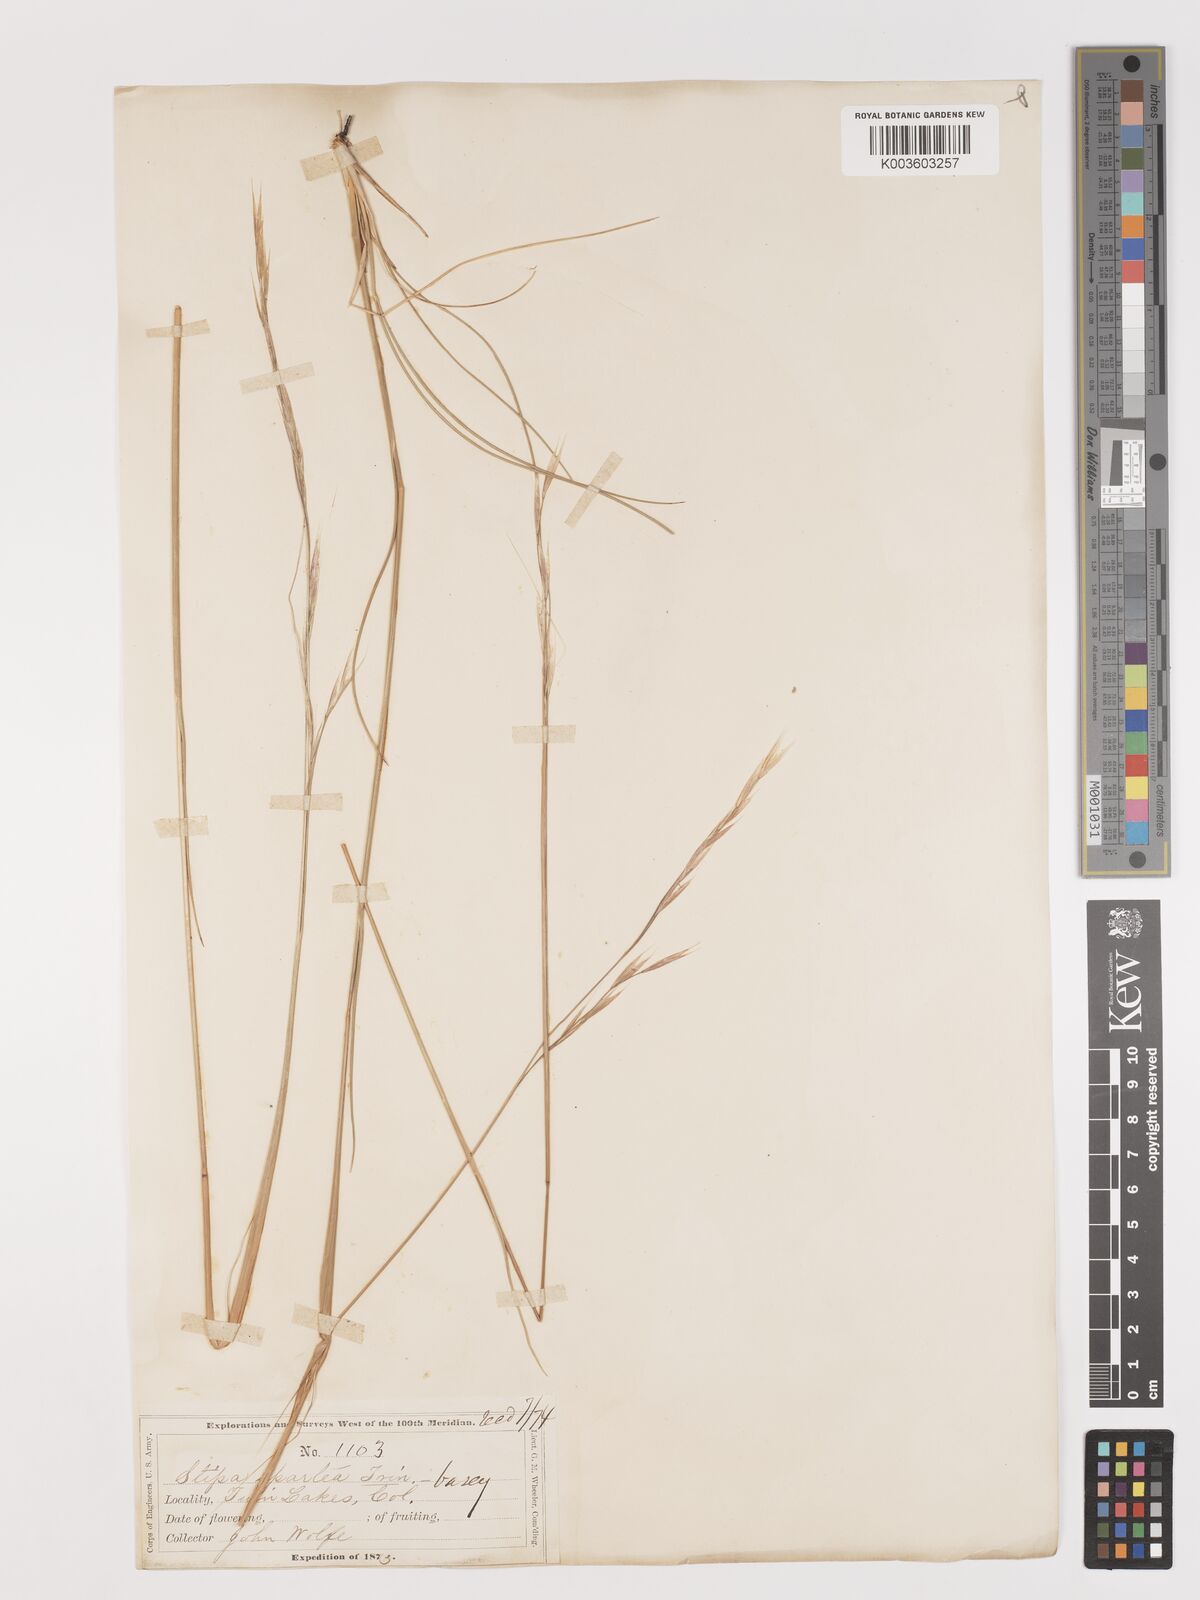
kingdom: Plantae
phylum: Tracheophyta
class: Liliopsida
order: Poales
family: Poaceae
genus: Hesperostipa
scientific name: Hesperostipa spartea
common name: Porcupine grass
